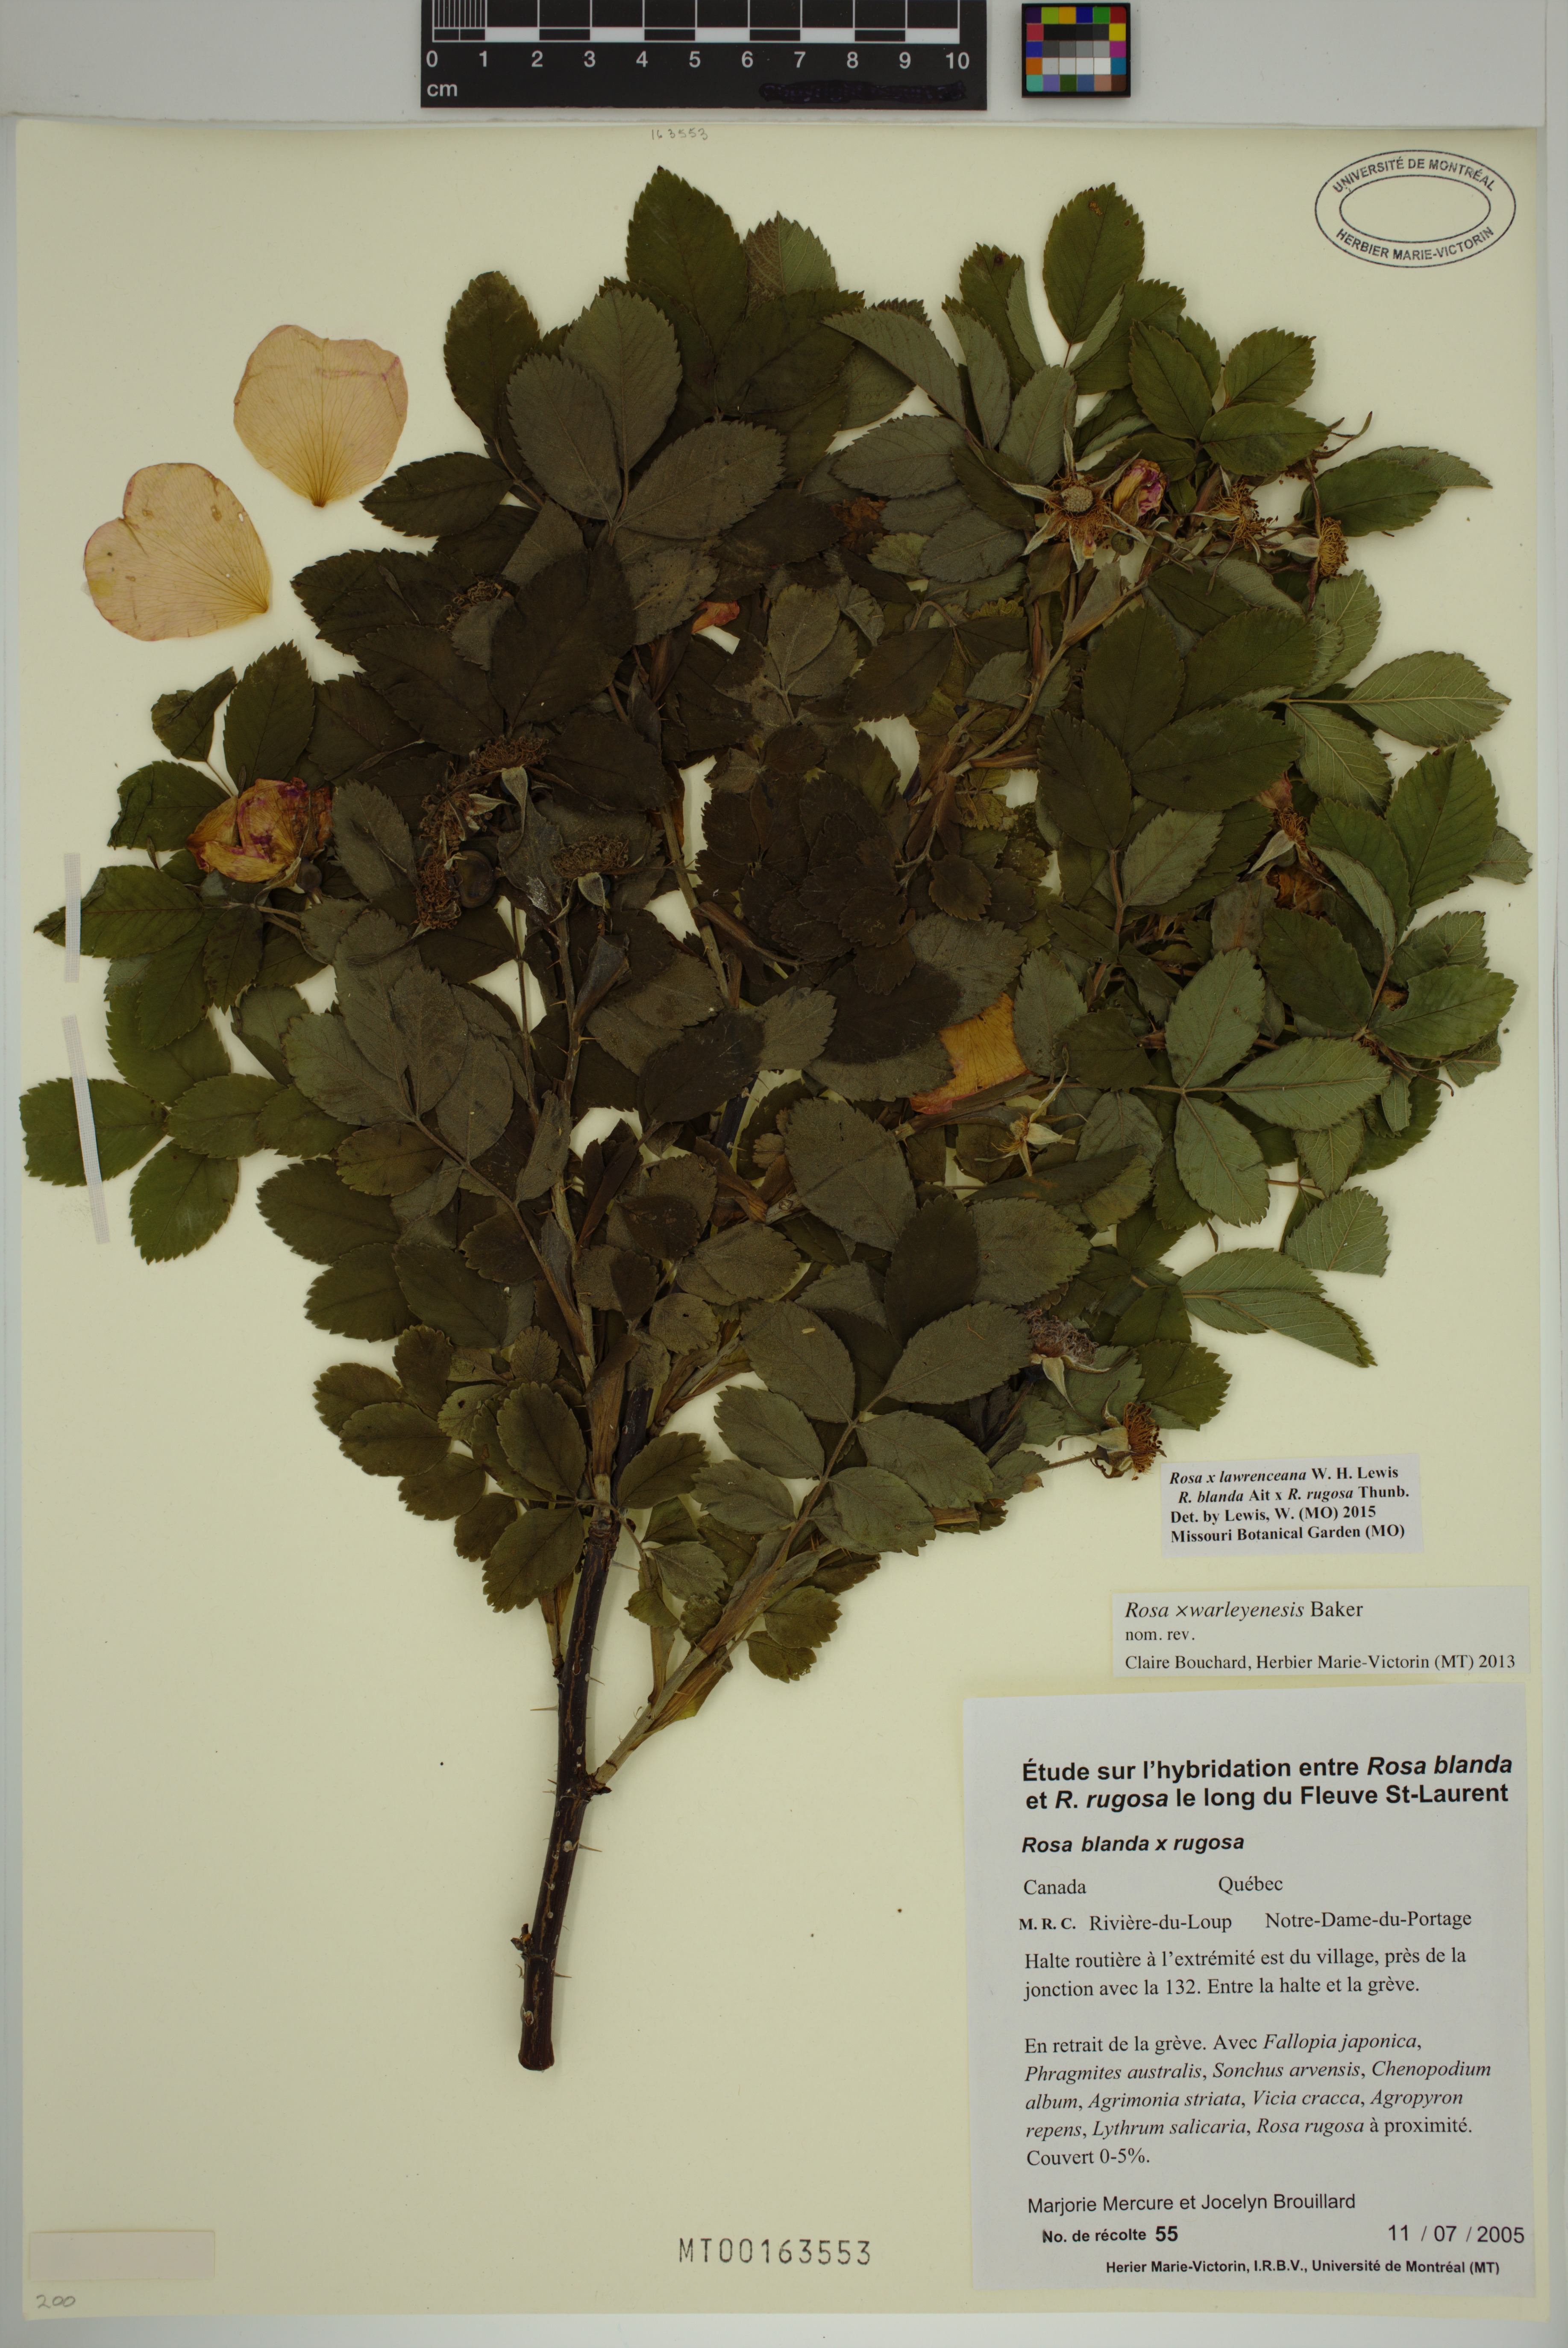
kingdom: Plantae
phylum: Tracheophyta
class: Magnoliopsida
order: Rosales
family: Rosaceae
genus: Rosa
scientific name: Rosa chinensis
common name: China rose
